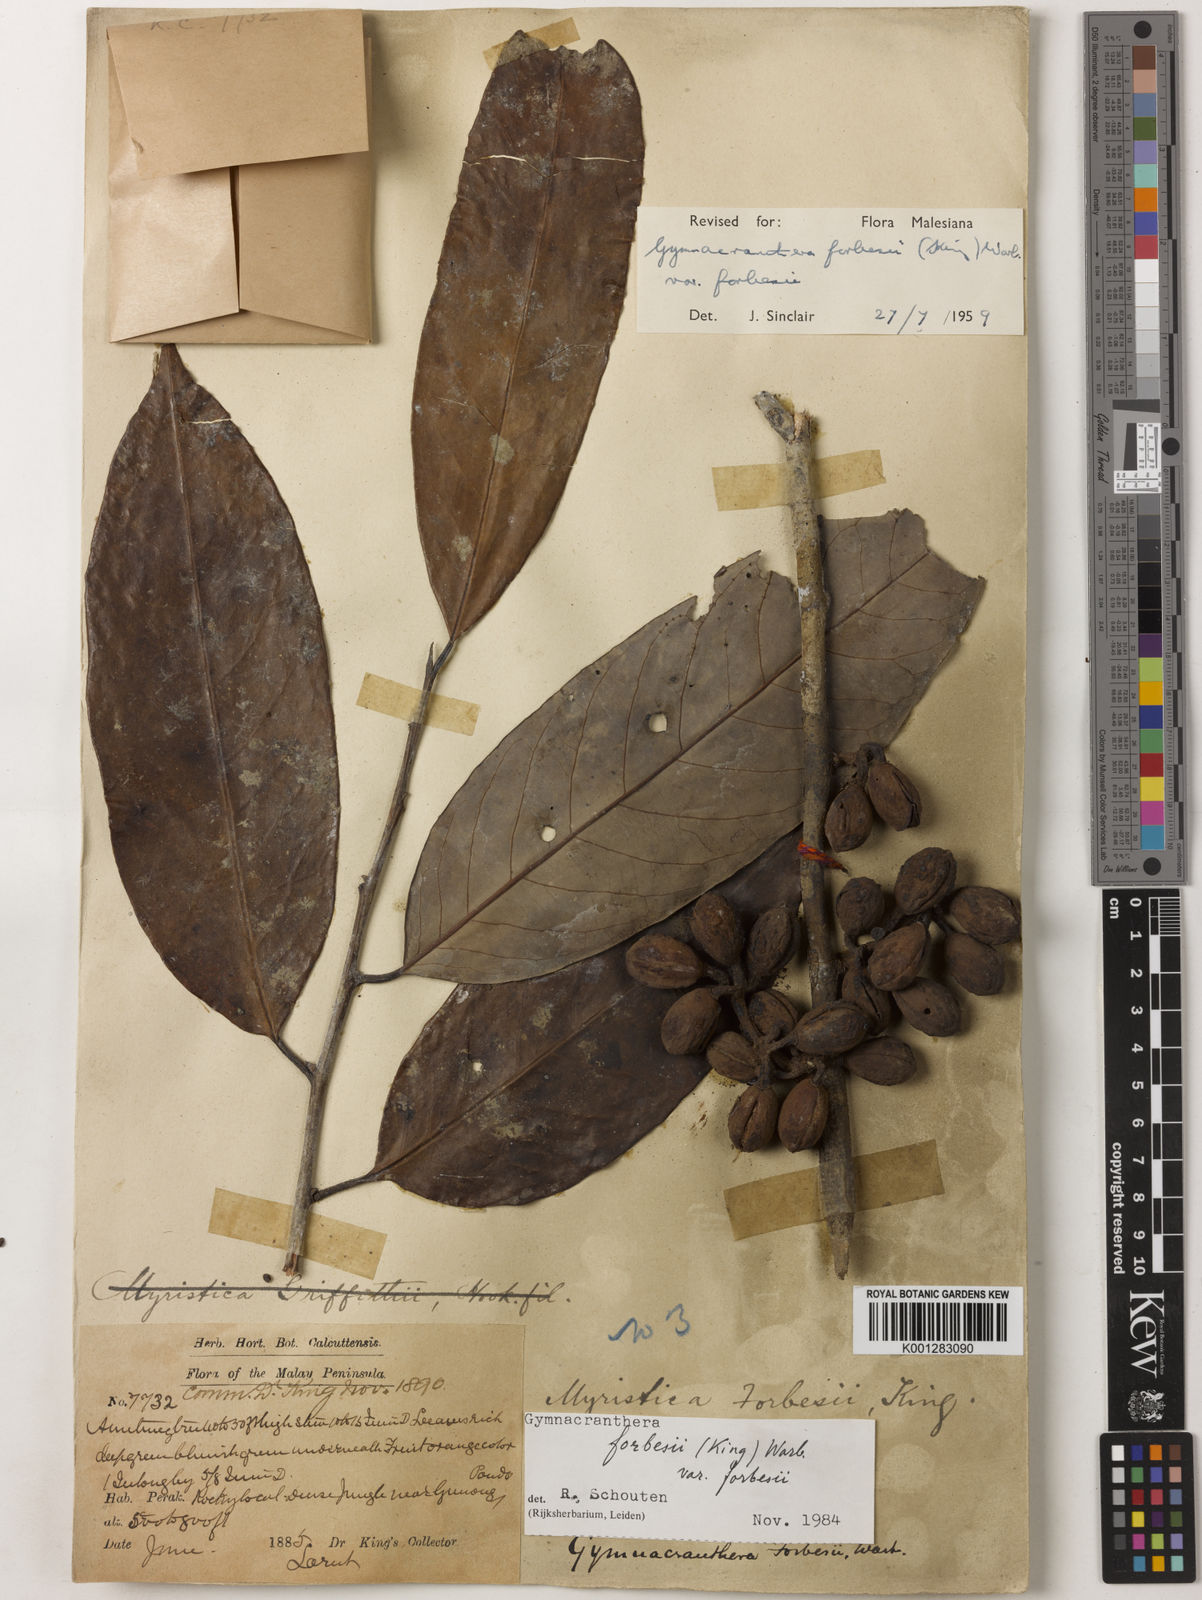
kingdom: Plantae
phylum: Tracheophyta
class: Magnoliopsida
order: Magnoliales
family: Myristicaceae
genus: Gymnacranthera
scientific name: Gymnacranthera forbesii
